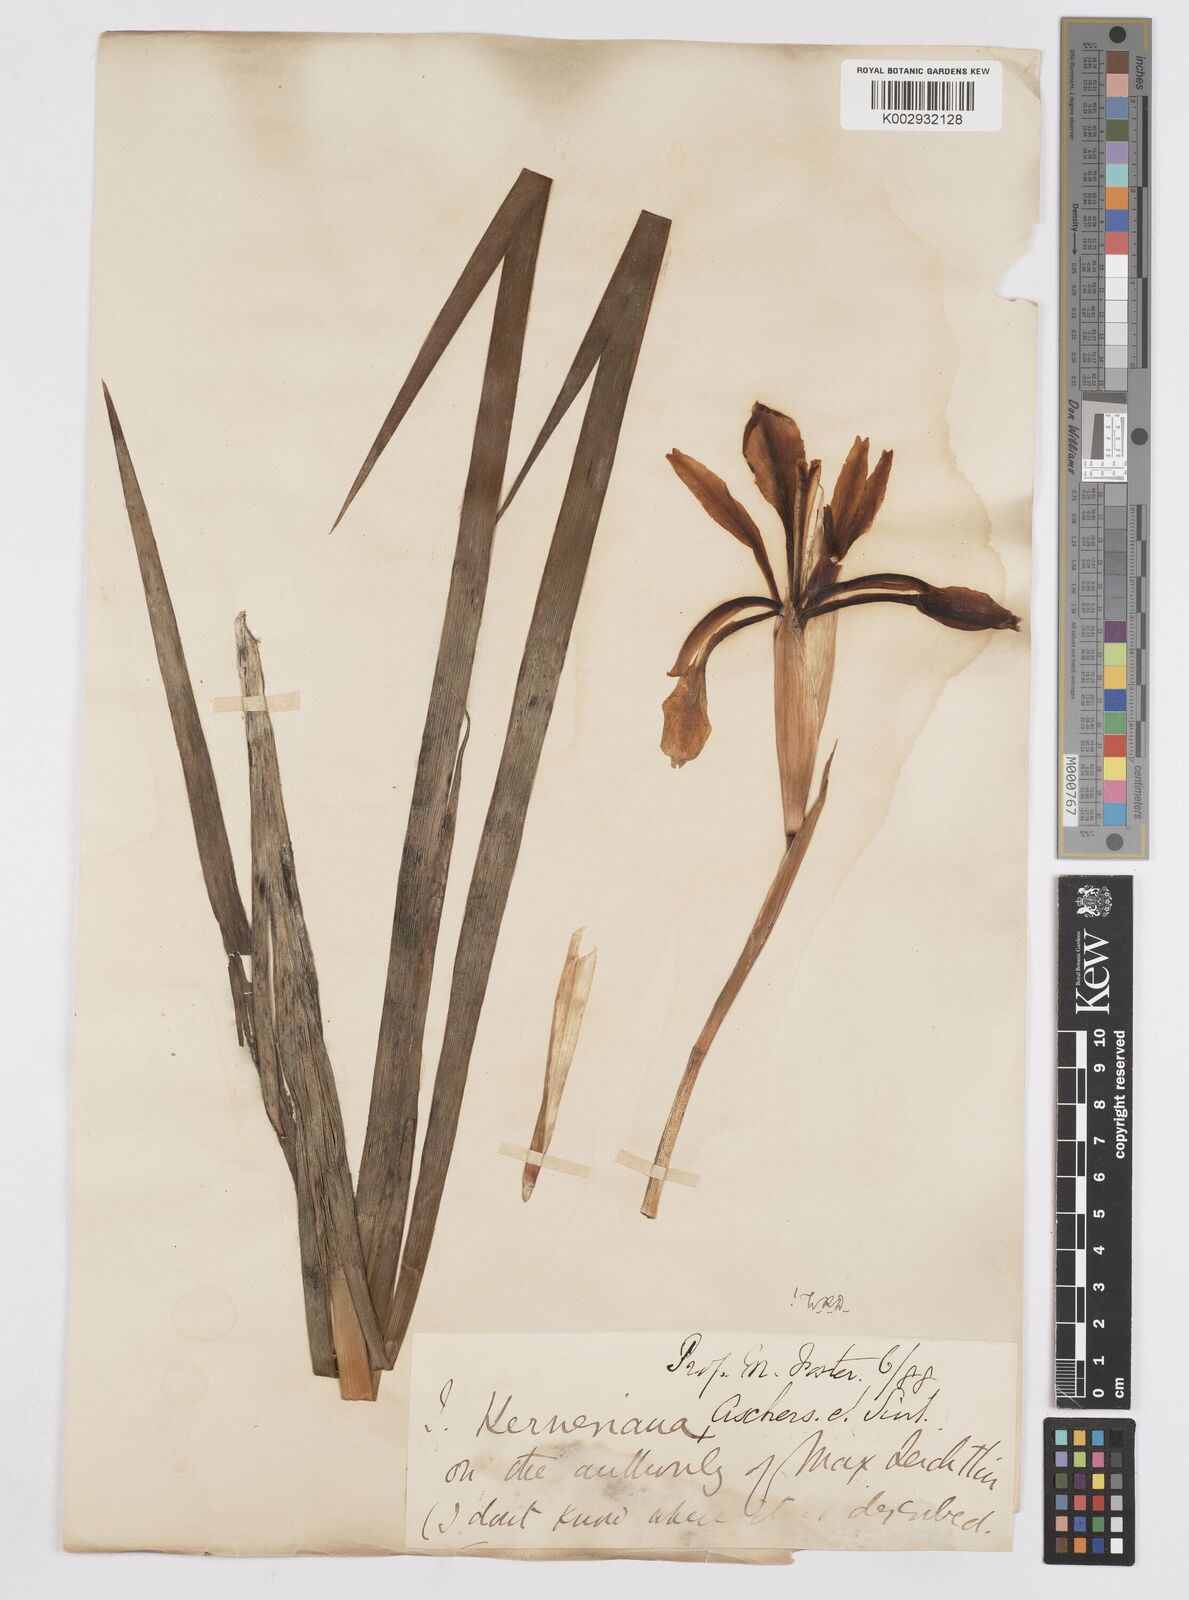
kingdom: Plantae
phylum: Tracheophyta
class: Liliopsida
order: Asparagales
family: Iridaceae
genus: Iris
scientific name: Iris haussknechtii
